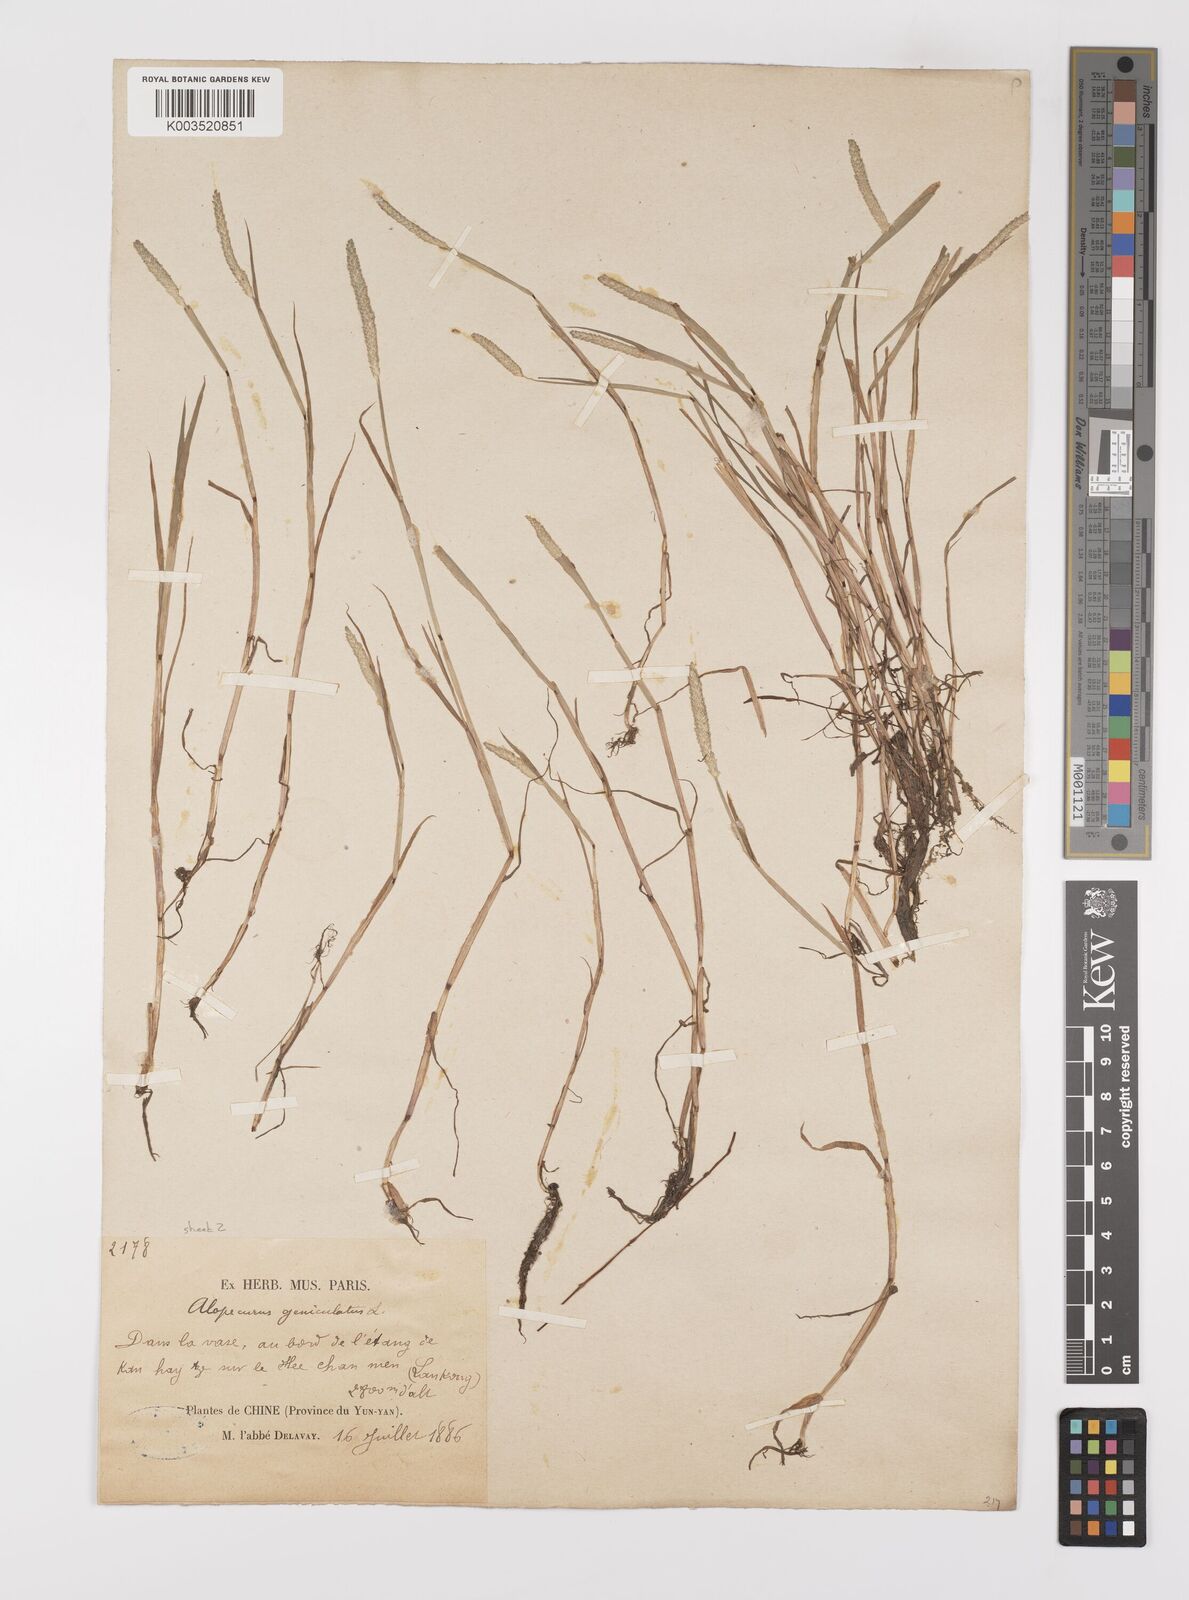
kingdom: Plantae
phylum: Tracheophyta
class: Liliopsida
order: Poales
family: Poaceae
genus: Alopecurus
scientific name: Alopecurus aequalis
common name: Orange foxtail
